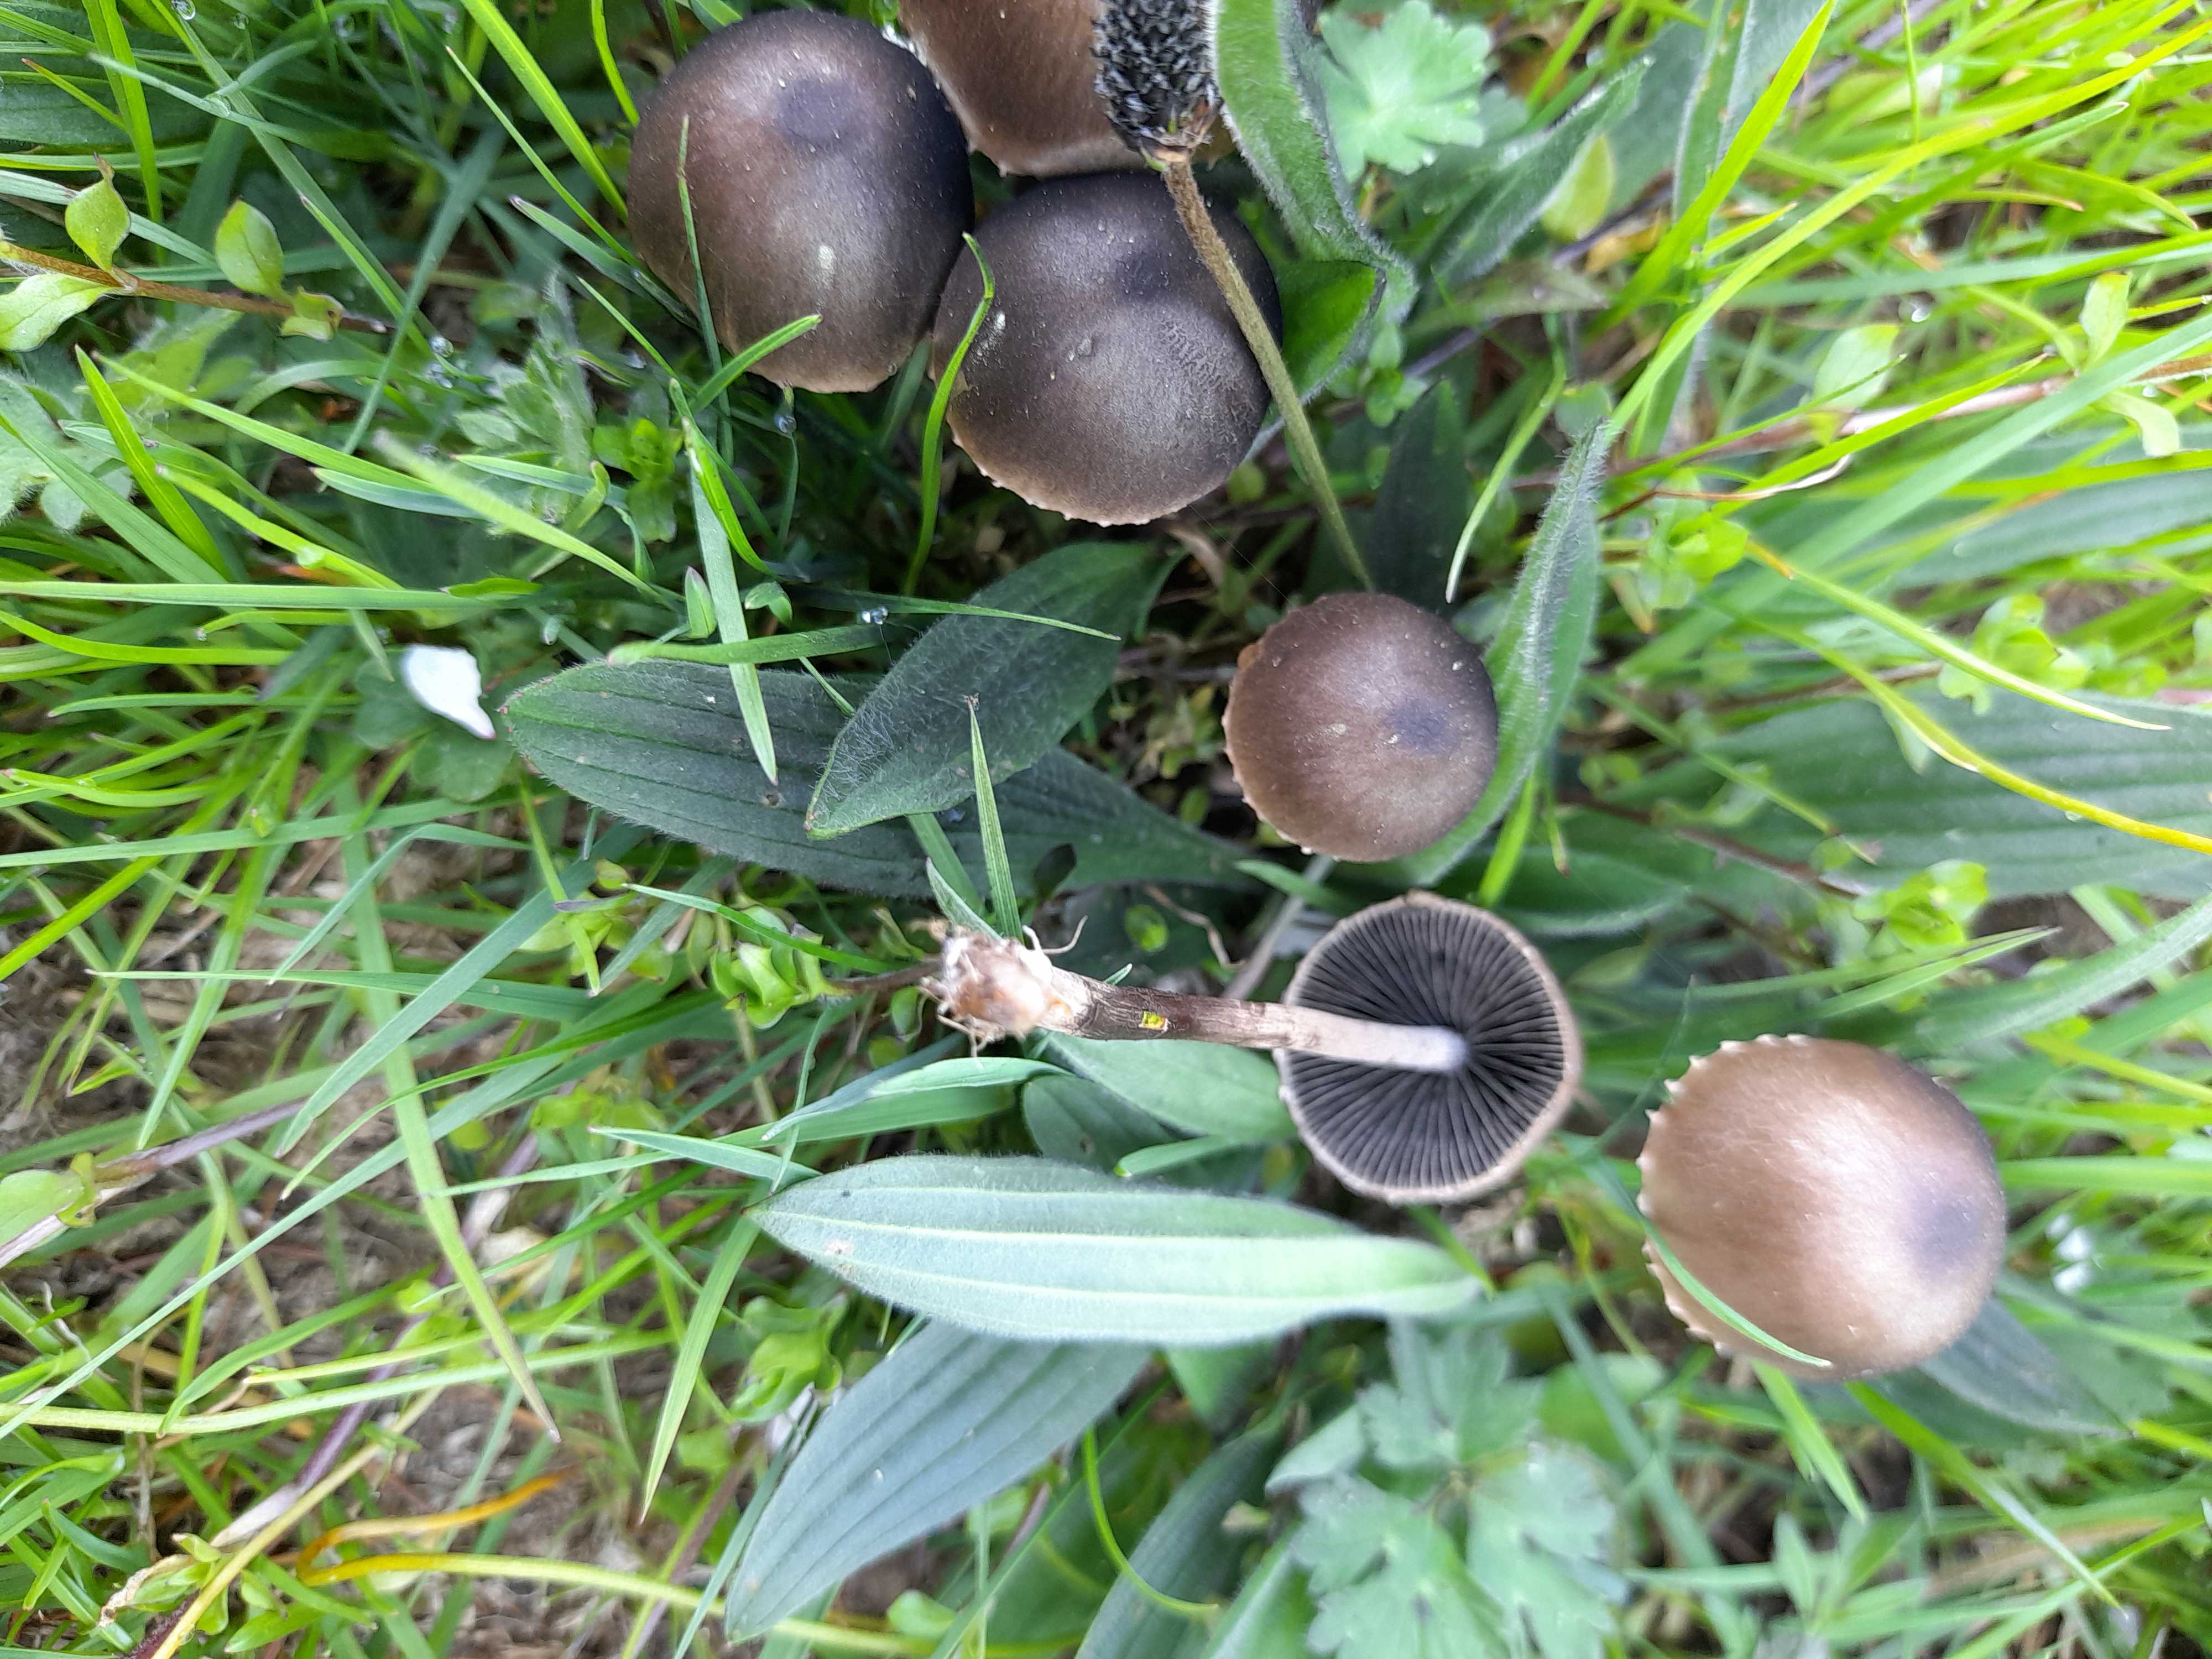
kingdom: Fungi
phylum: Basidiomycota
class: Agaricomycetes
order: Agaricales
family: Bolbitiaceae
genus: Panaeolus
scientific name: Panaeolus papilionaceus
